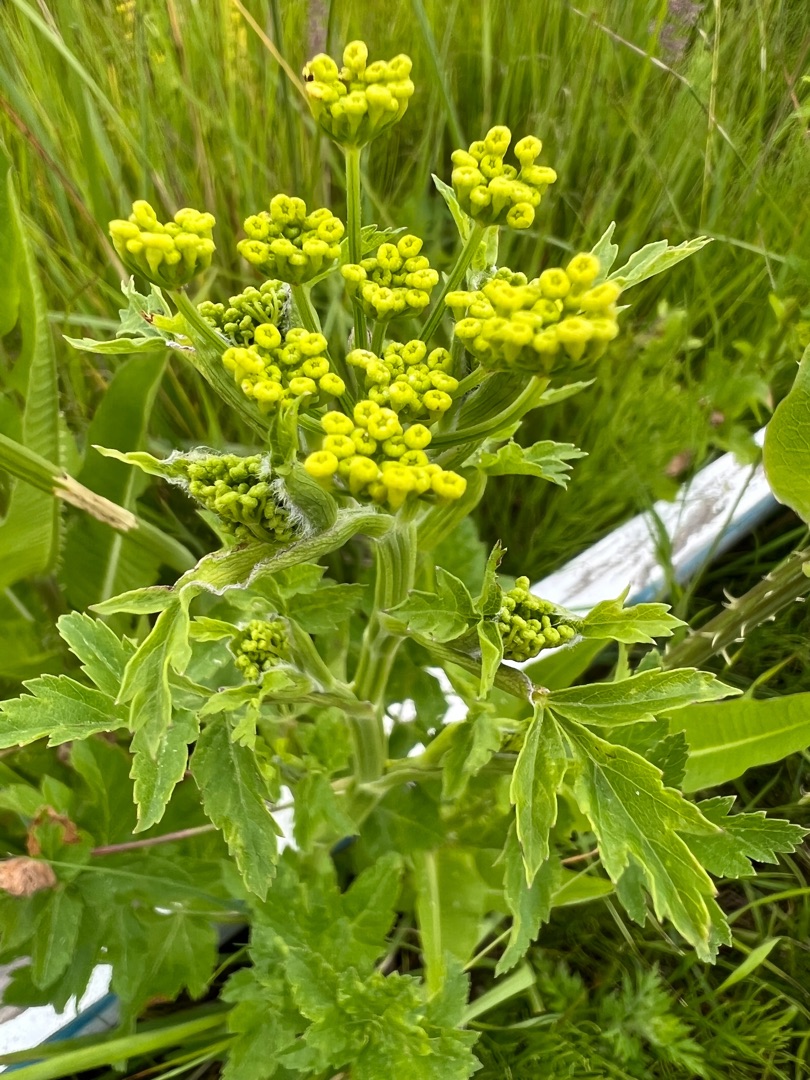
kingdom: Plantae
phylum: Tracheophyta
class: Magnoliopsida
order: Apiales
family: Apiaceae
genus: Pastinaca
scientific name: Pastinaca sativa
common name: Pastinak
